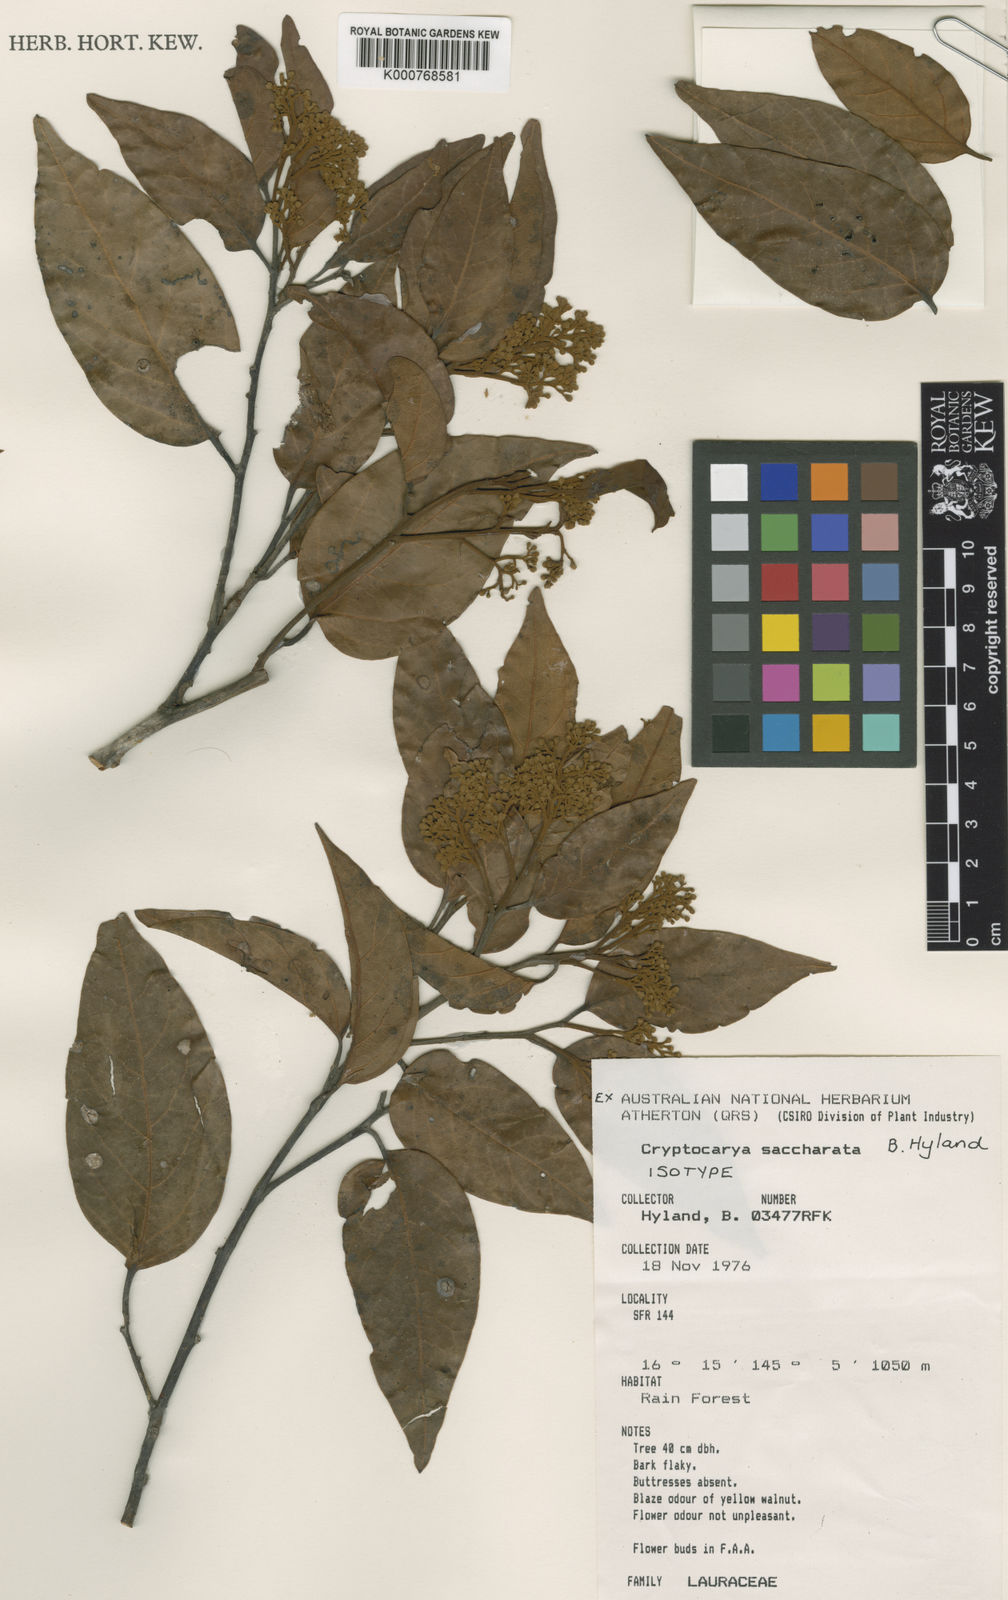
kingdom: Plantae
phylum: Tracheophyta
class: Magnoliopsida
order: Laurales
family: Lauraceae
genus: Cryptocarya
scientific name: Cryptocarya saccharata
